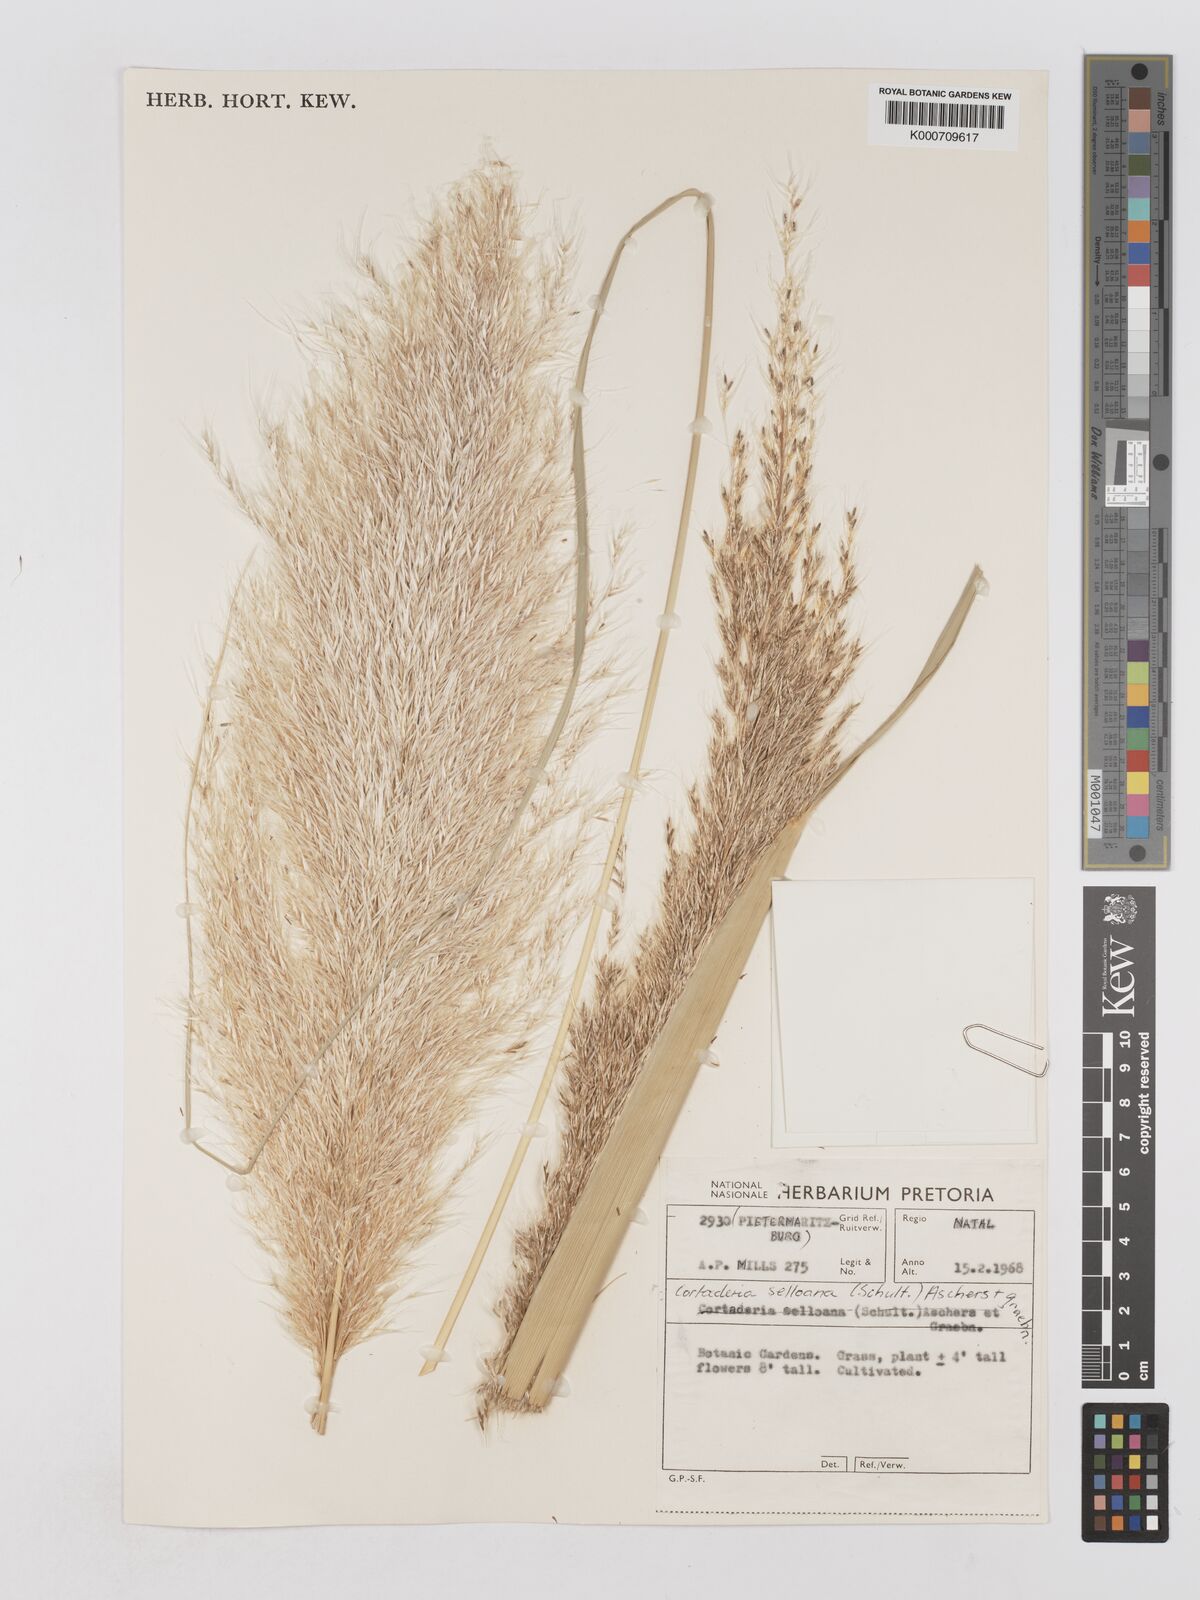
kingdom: Plantae
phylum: Tracheophyta
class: Liliopsida
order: Poales
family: Poaceae
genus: Cortaderia
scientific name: Cortaderia selloana
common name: Uruguayan pampas grass
